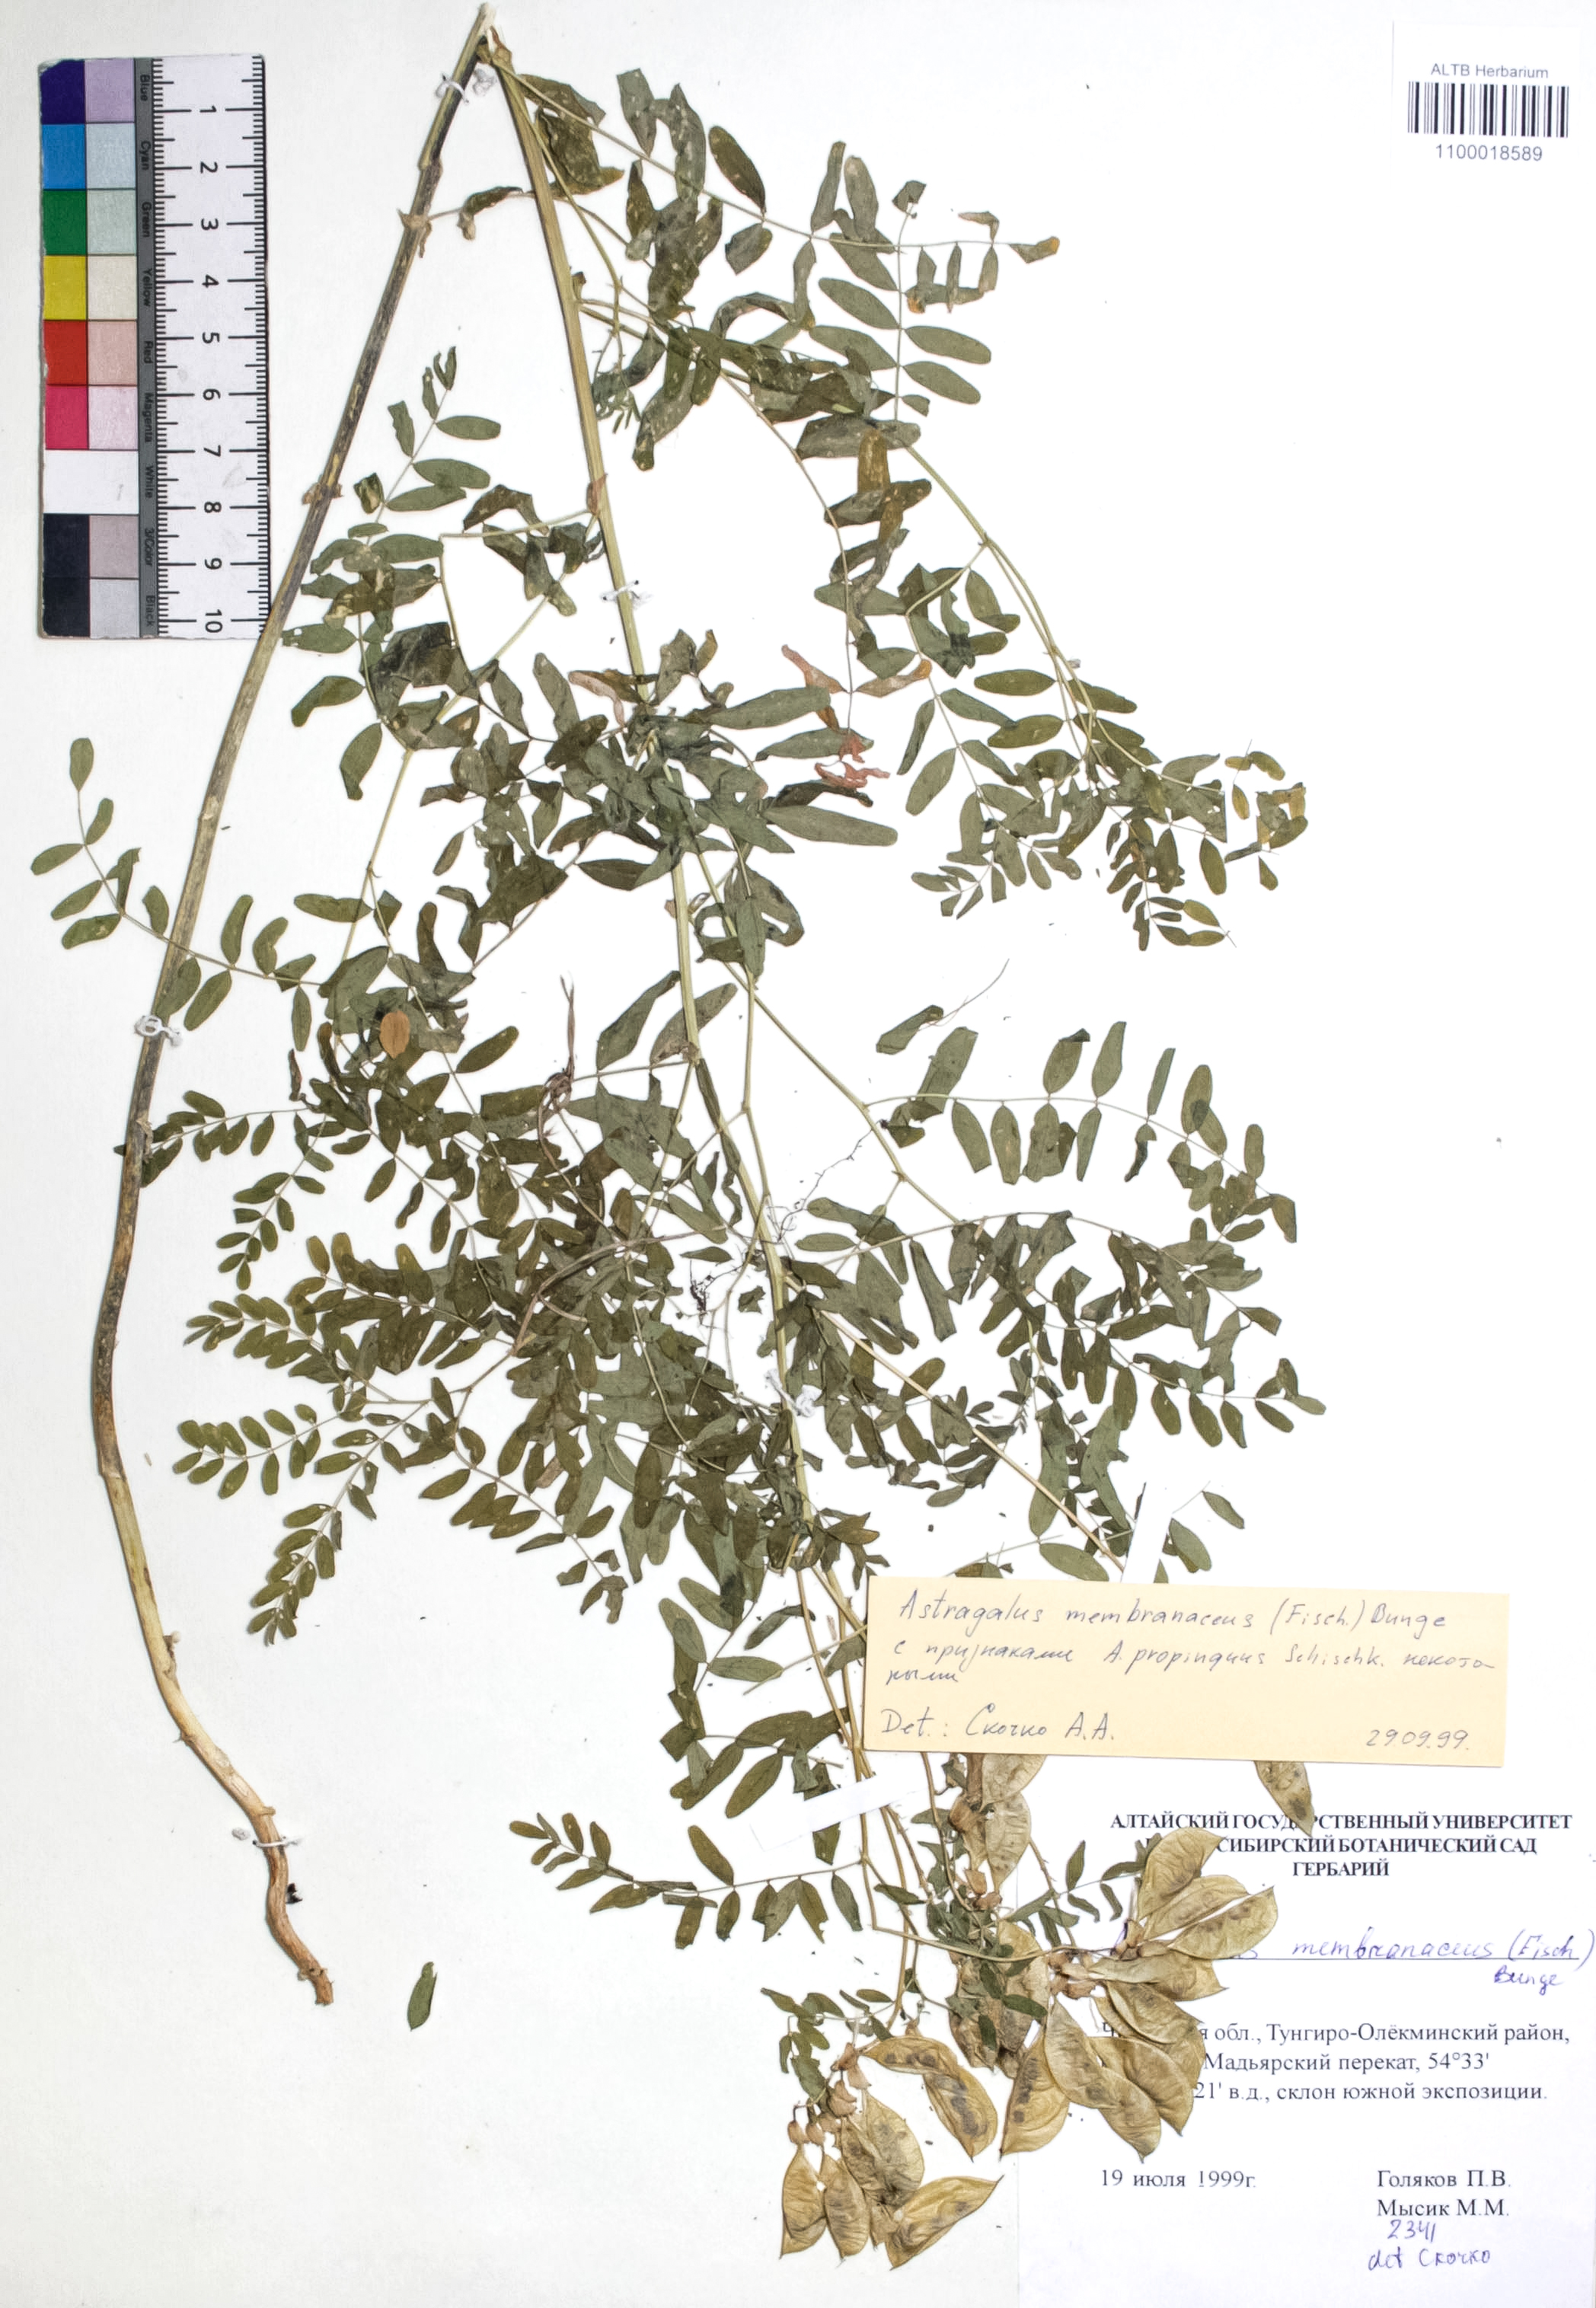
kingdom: Plantae
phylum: Tracheophyta
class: Magnoliopsida
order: Fabales
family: Fabaceae
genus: Astragalus
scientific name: Astragalus mongholicus
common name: Membranous milk-vetch
